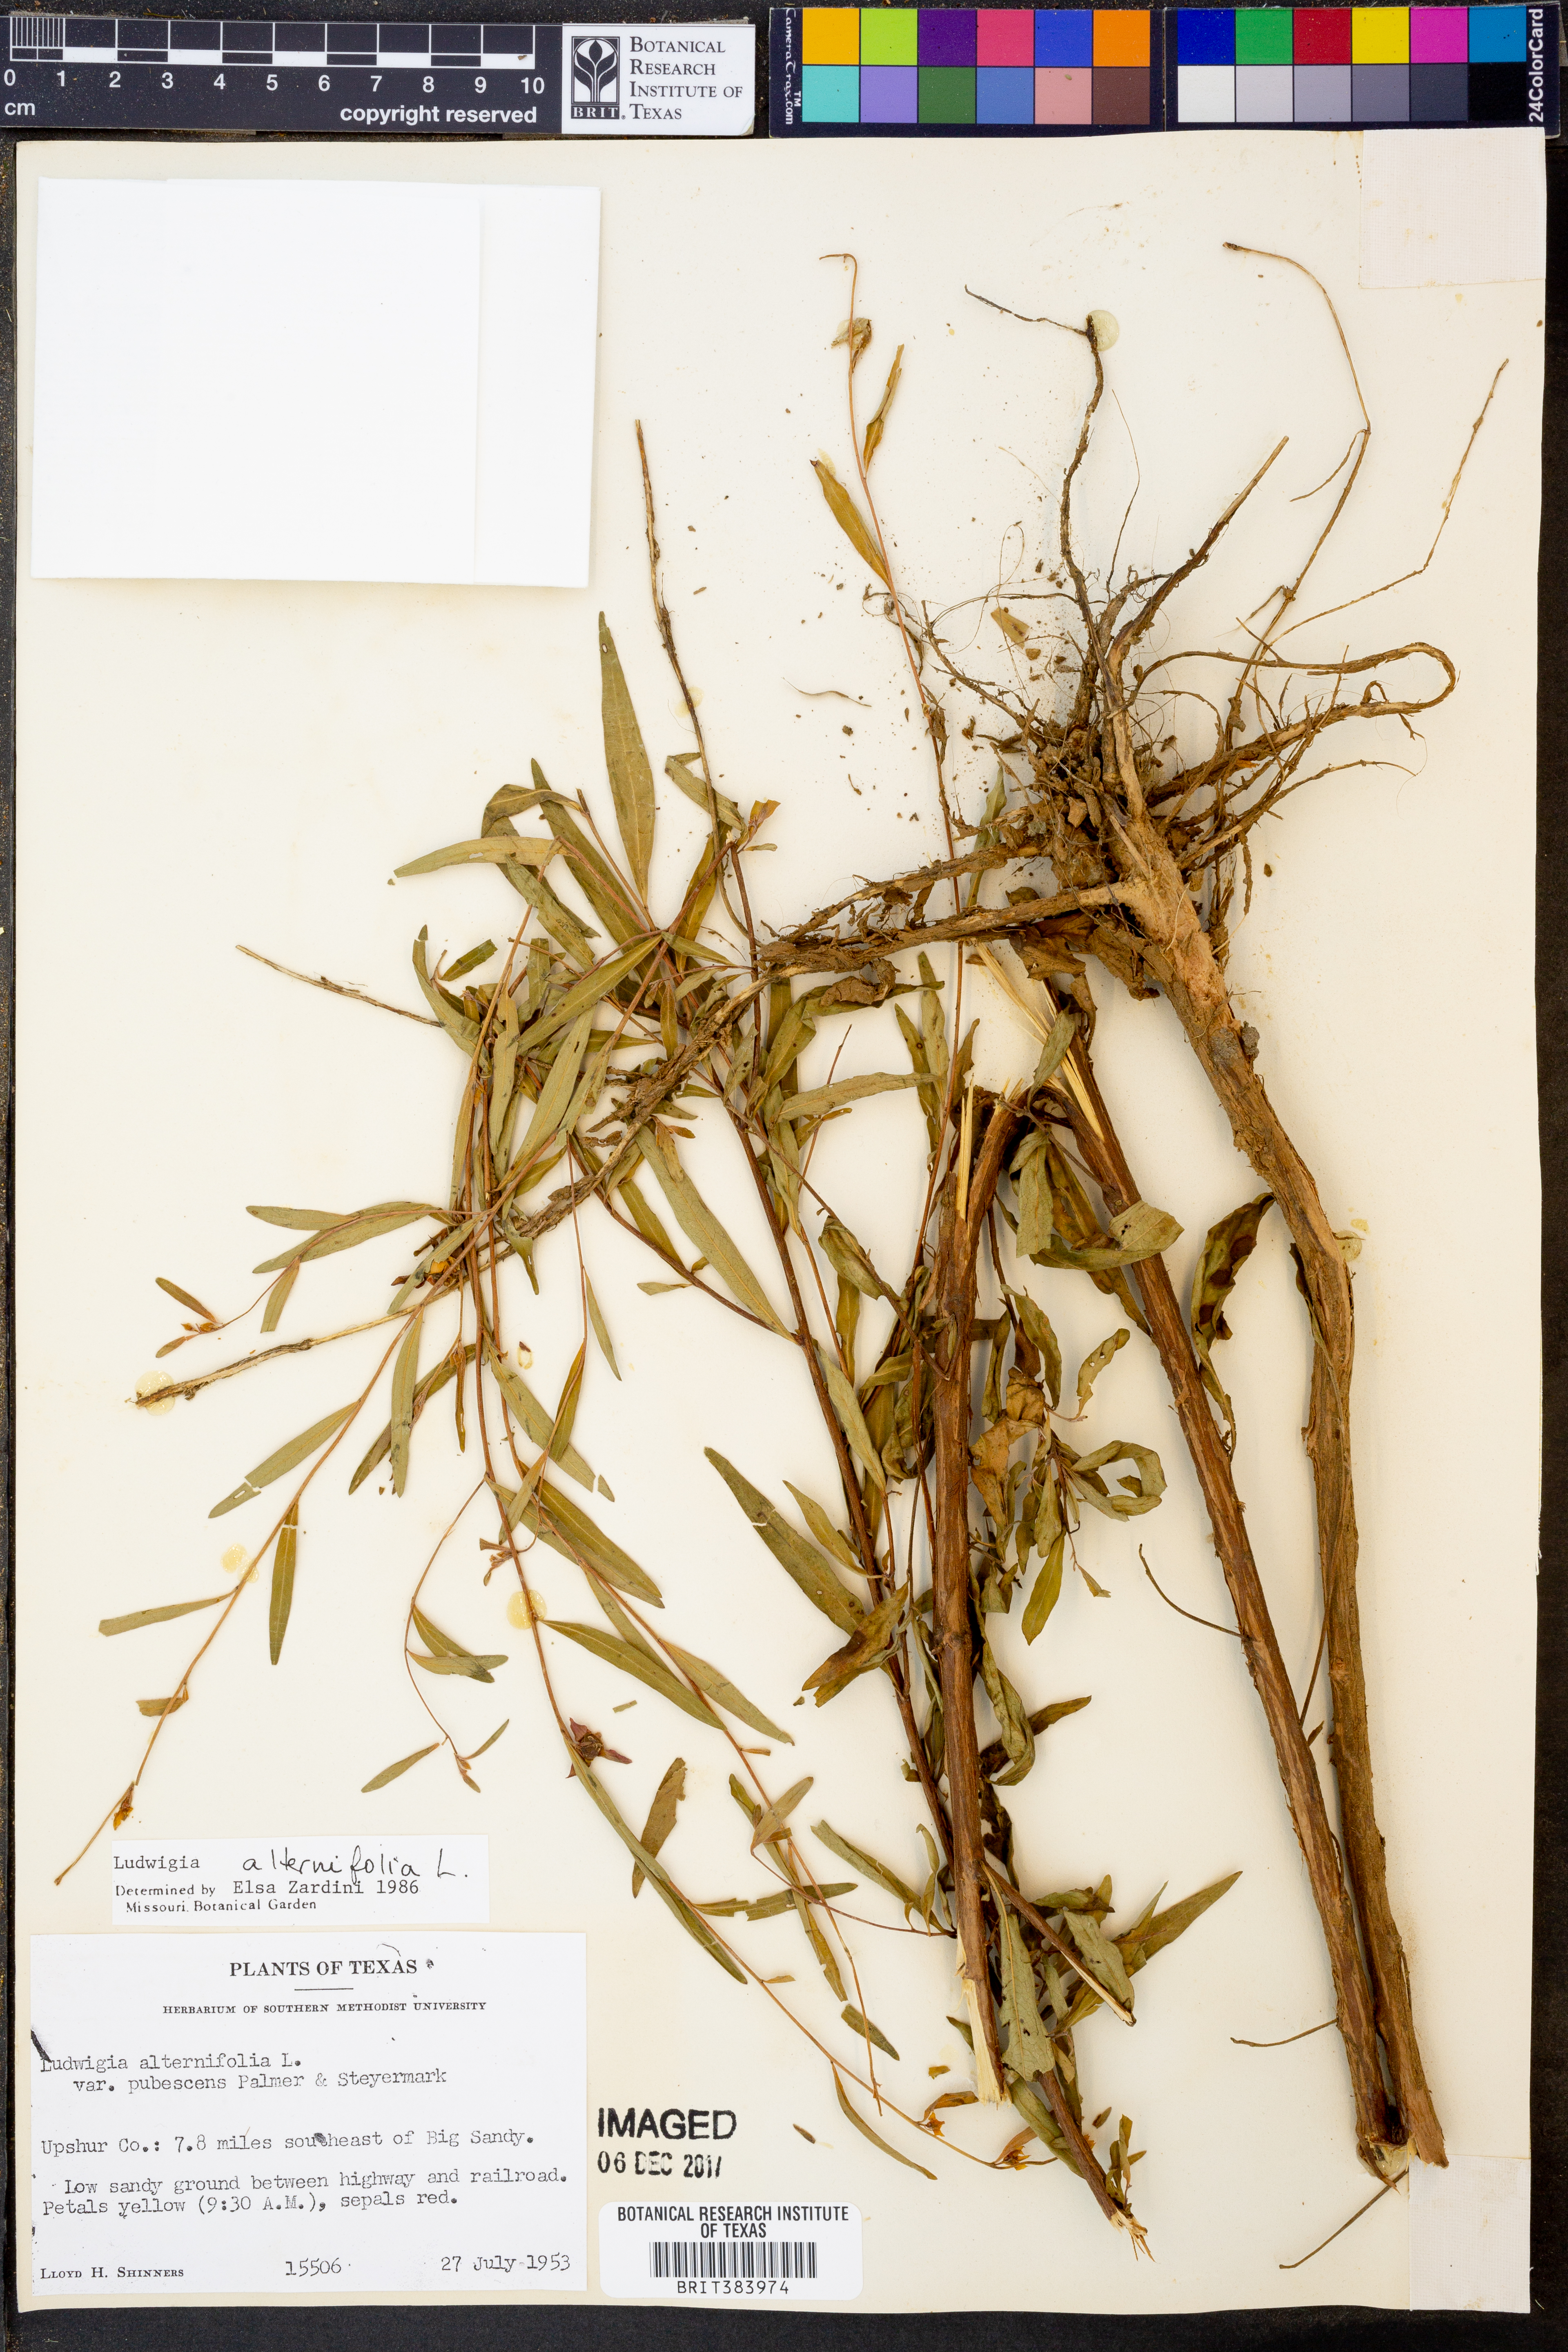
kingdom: Plantae
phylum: Tracheophyta
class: Magnoliopsida
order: Myrtales
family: Onagraceae
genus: Ludwigia
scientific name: Ludwigia alternifolia
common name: Rattlebox
